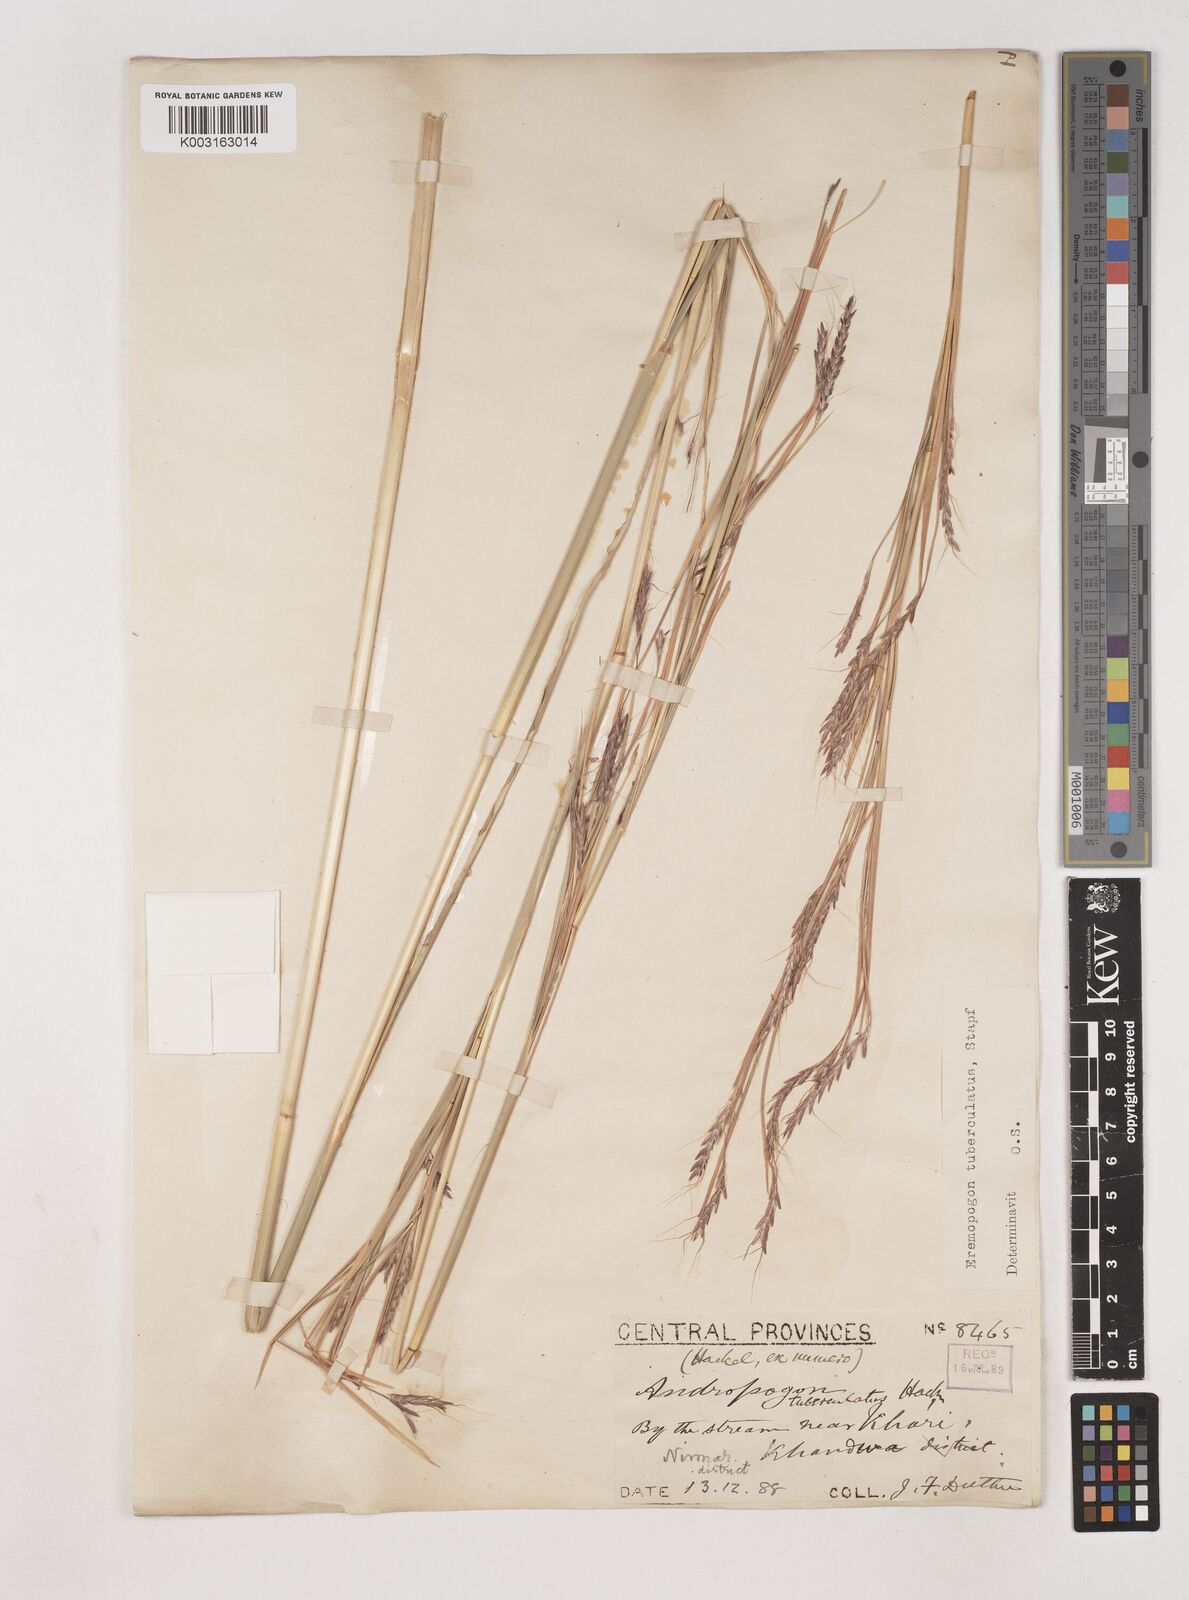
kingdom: Plantae
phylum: Tracheophyta
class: Liliopsida
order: Poales
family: Poaceae
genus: Dichanthium
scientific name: Dichanthium tuberculatum
